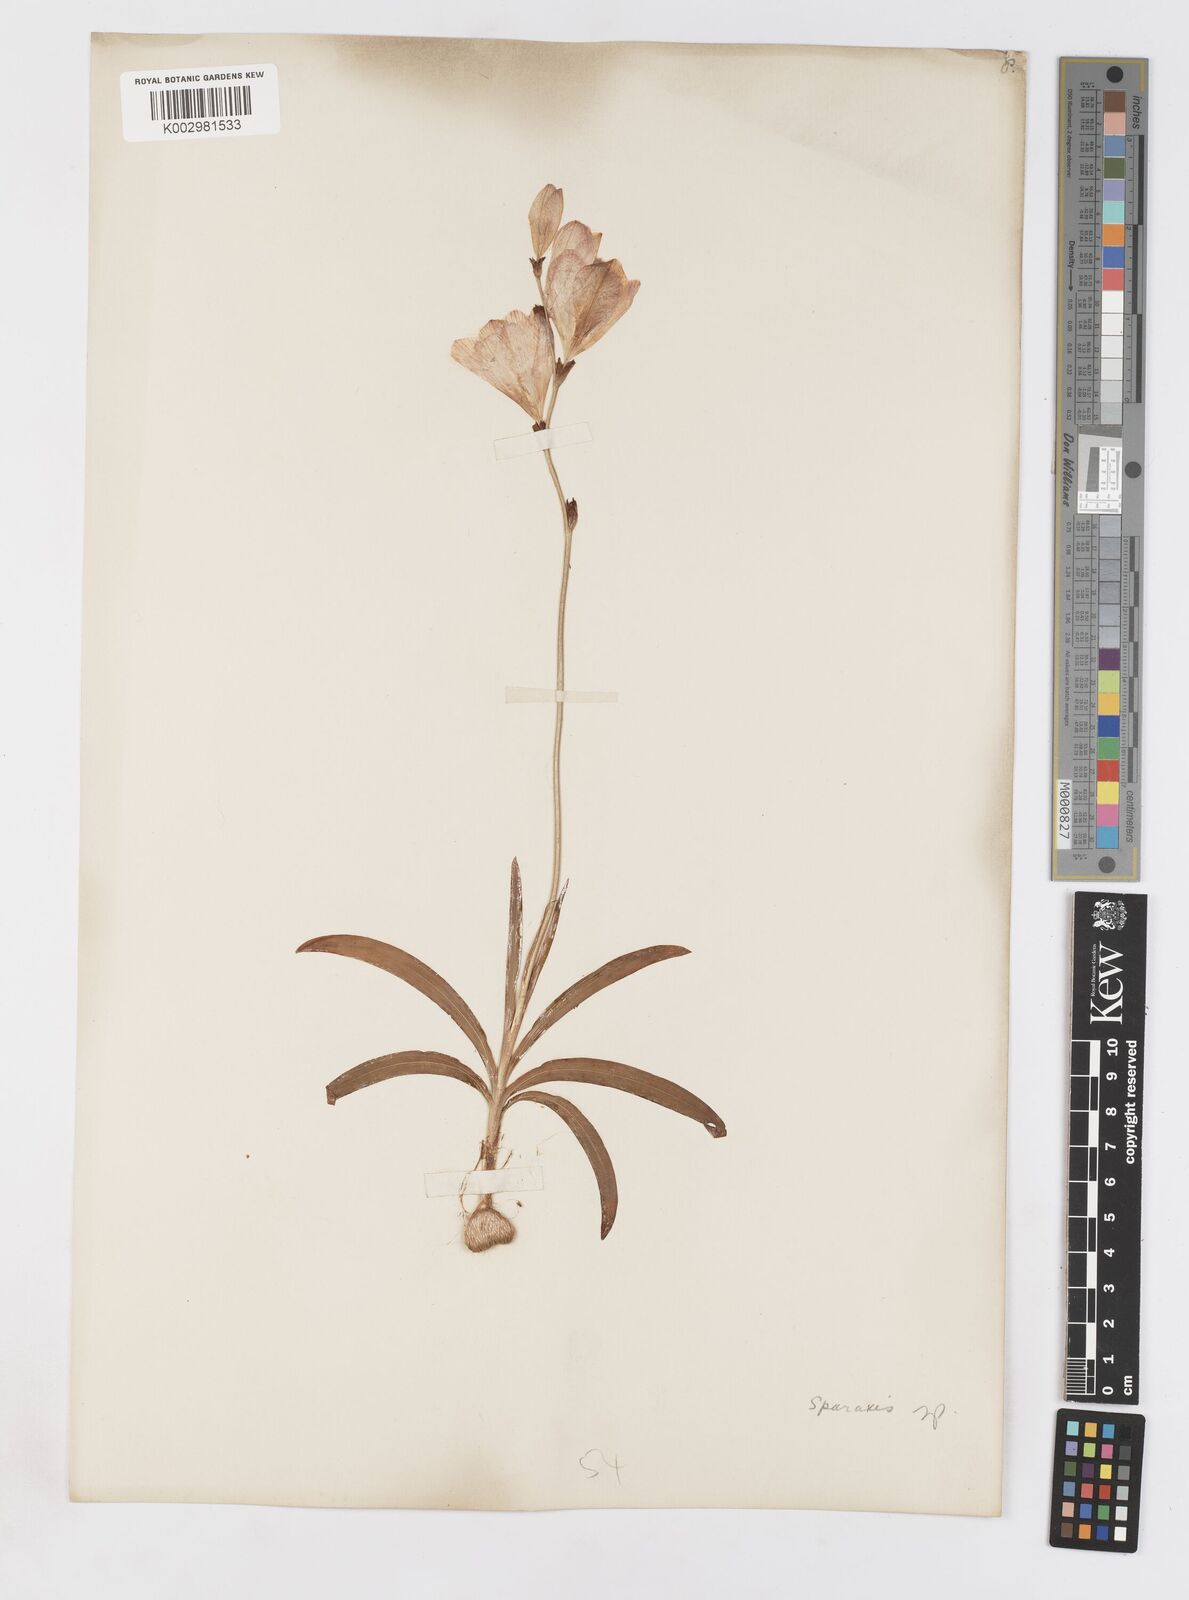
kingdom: Plantae
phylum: Tracheophyta
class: Liliopsida
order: Asparagales
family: Iridaceae
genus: Sparaxis
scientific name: Sparaxis
